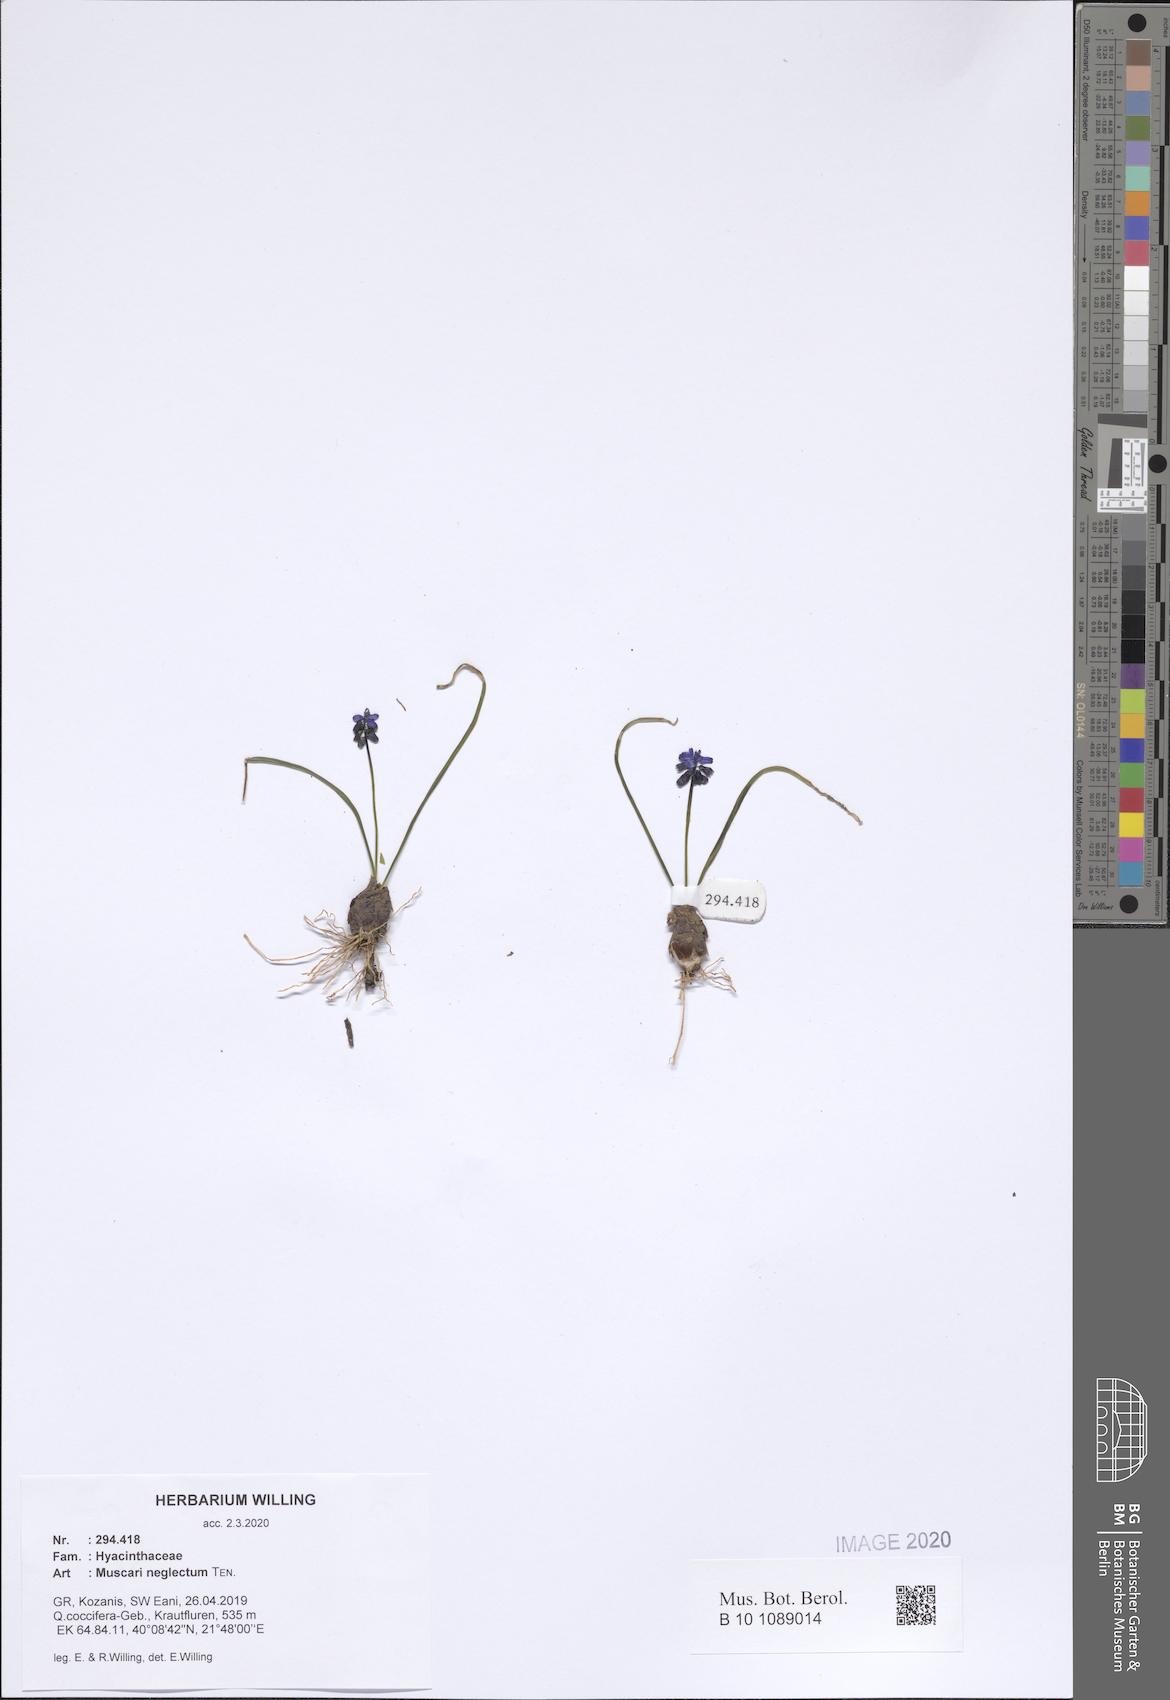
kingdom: Plantae
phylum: Tracheophyta
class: Liliopsida
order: Asparagales
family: Asparagaceae
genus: Muscari
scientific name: Muscari neglectum
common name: Grape-hyacinth
